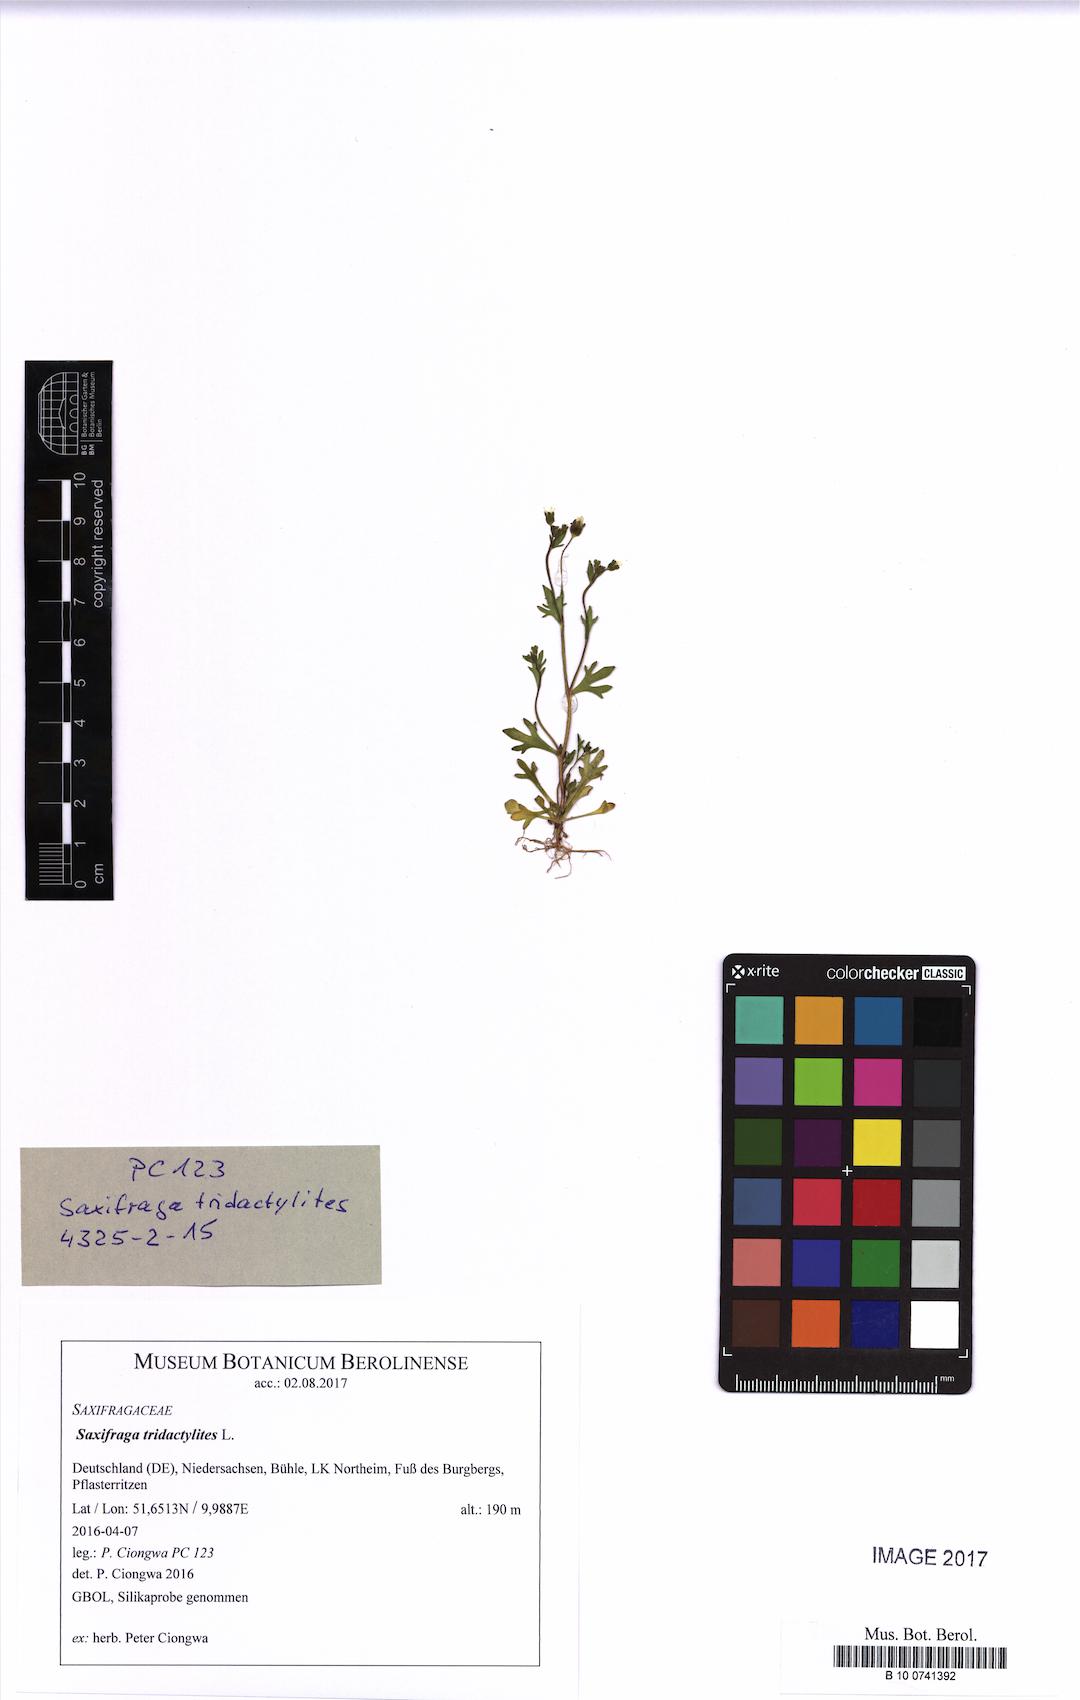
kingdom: Plantae
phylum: Tracheophyta
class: Magnoliopsida
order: Saxifragales
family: Saxifragaceae
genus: Saxifraga
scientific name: Saxifraga tridactylites
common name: Rue-leaved saxifrage
